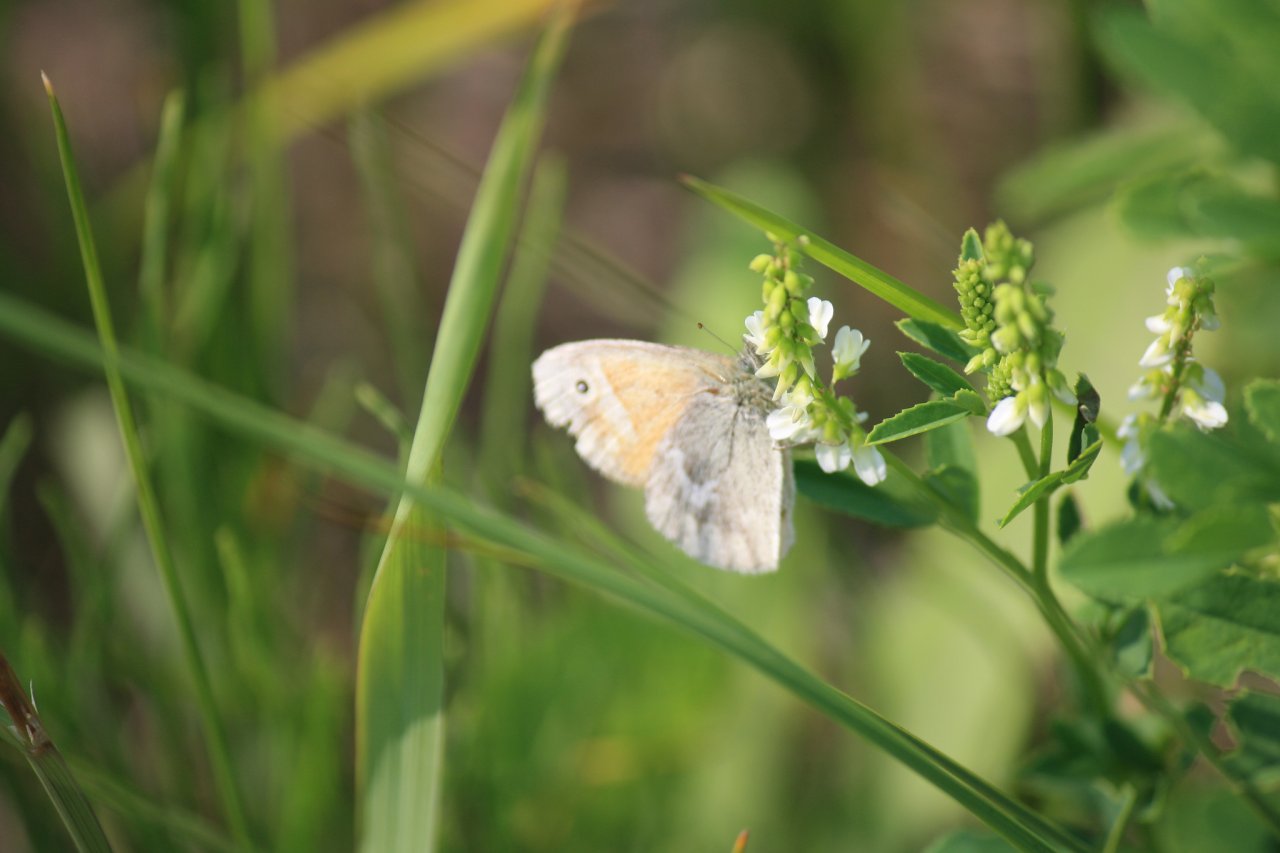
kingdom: Animalia
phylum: Arthropoda
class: Insecta
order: Lepidoptera
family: Nymphalidae
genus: Coenonympha
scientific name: Coenonympha tullia
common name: Large Heath
